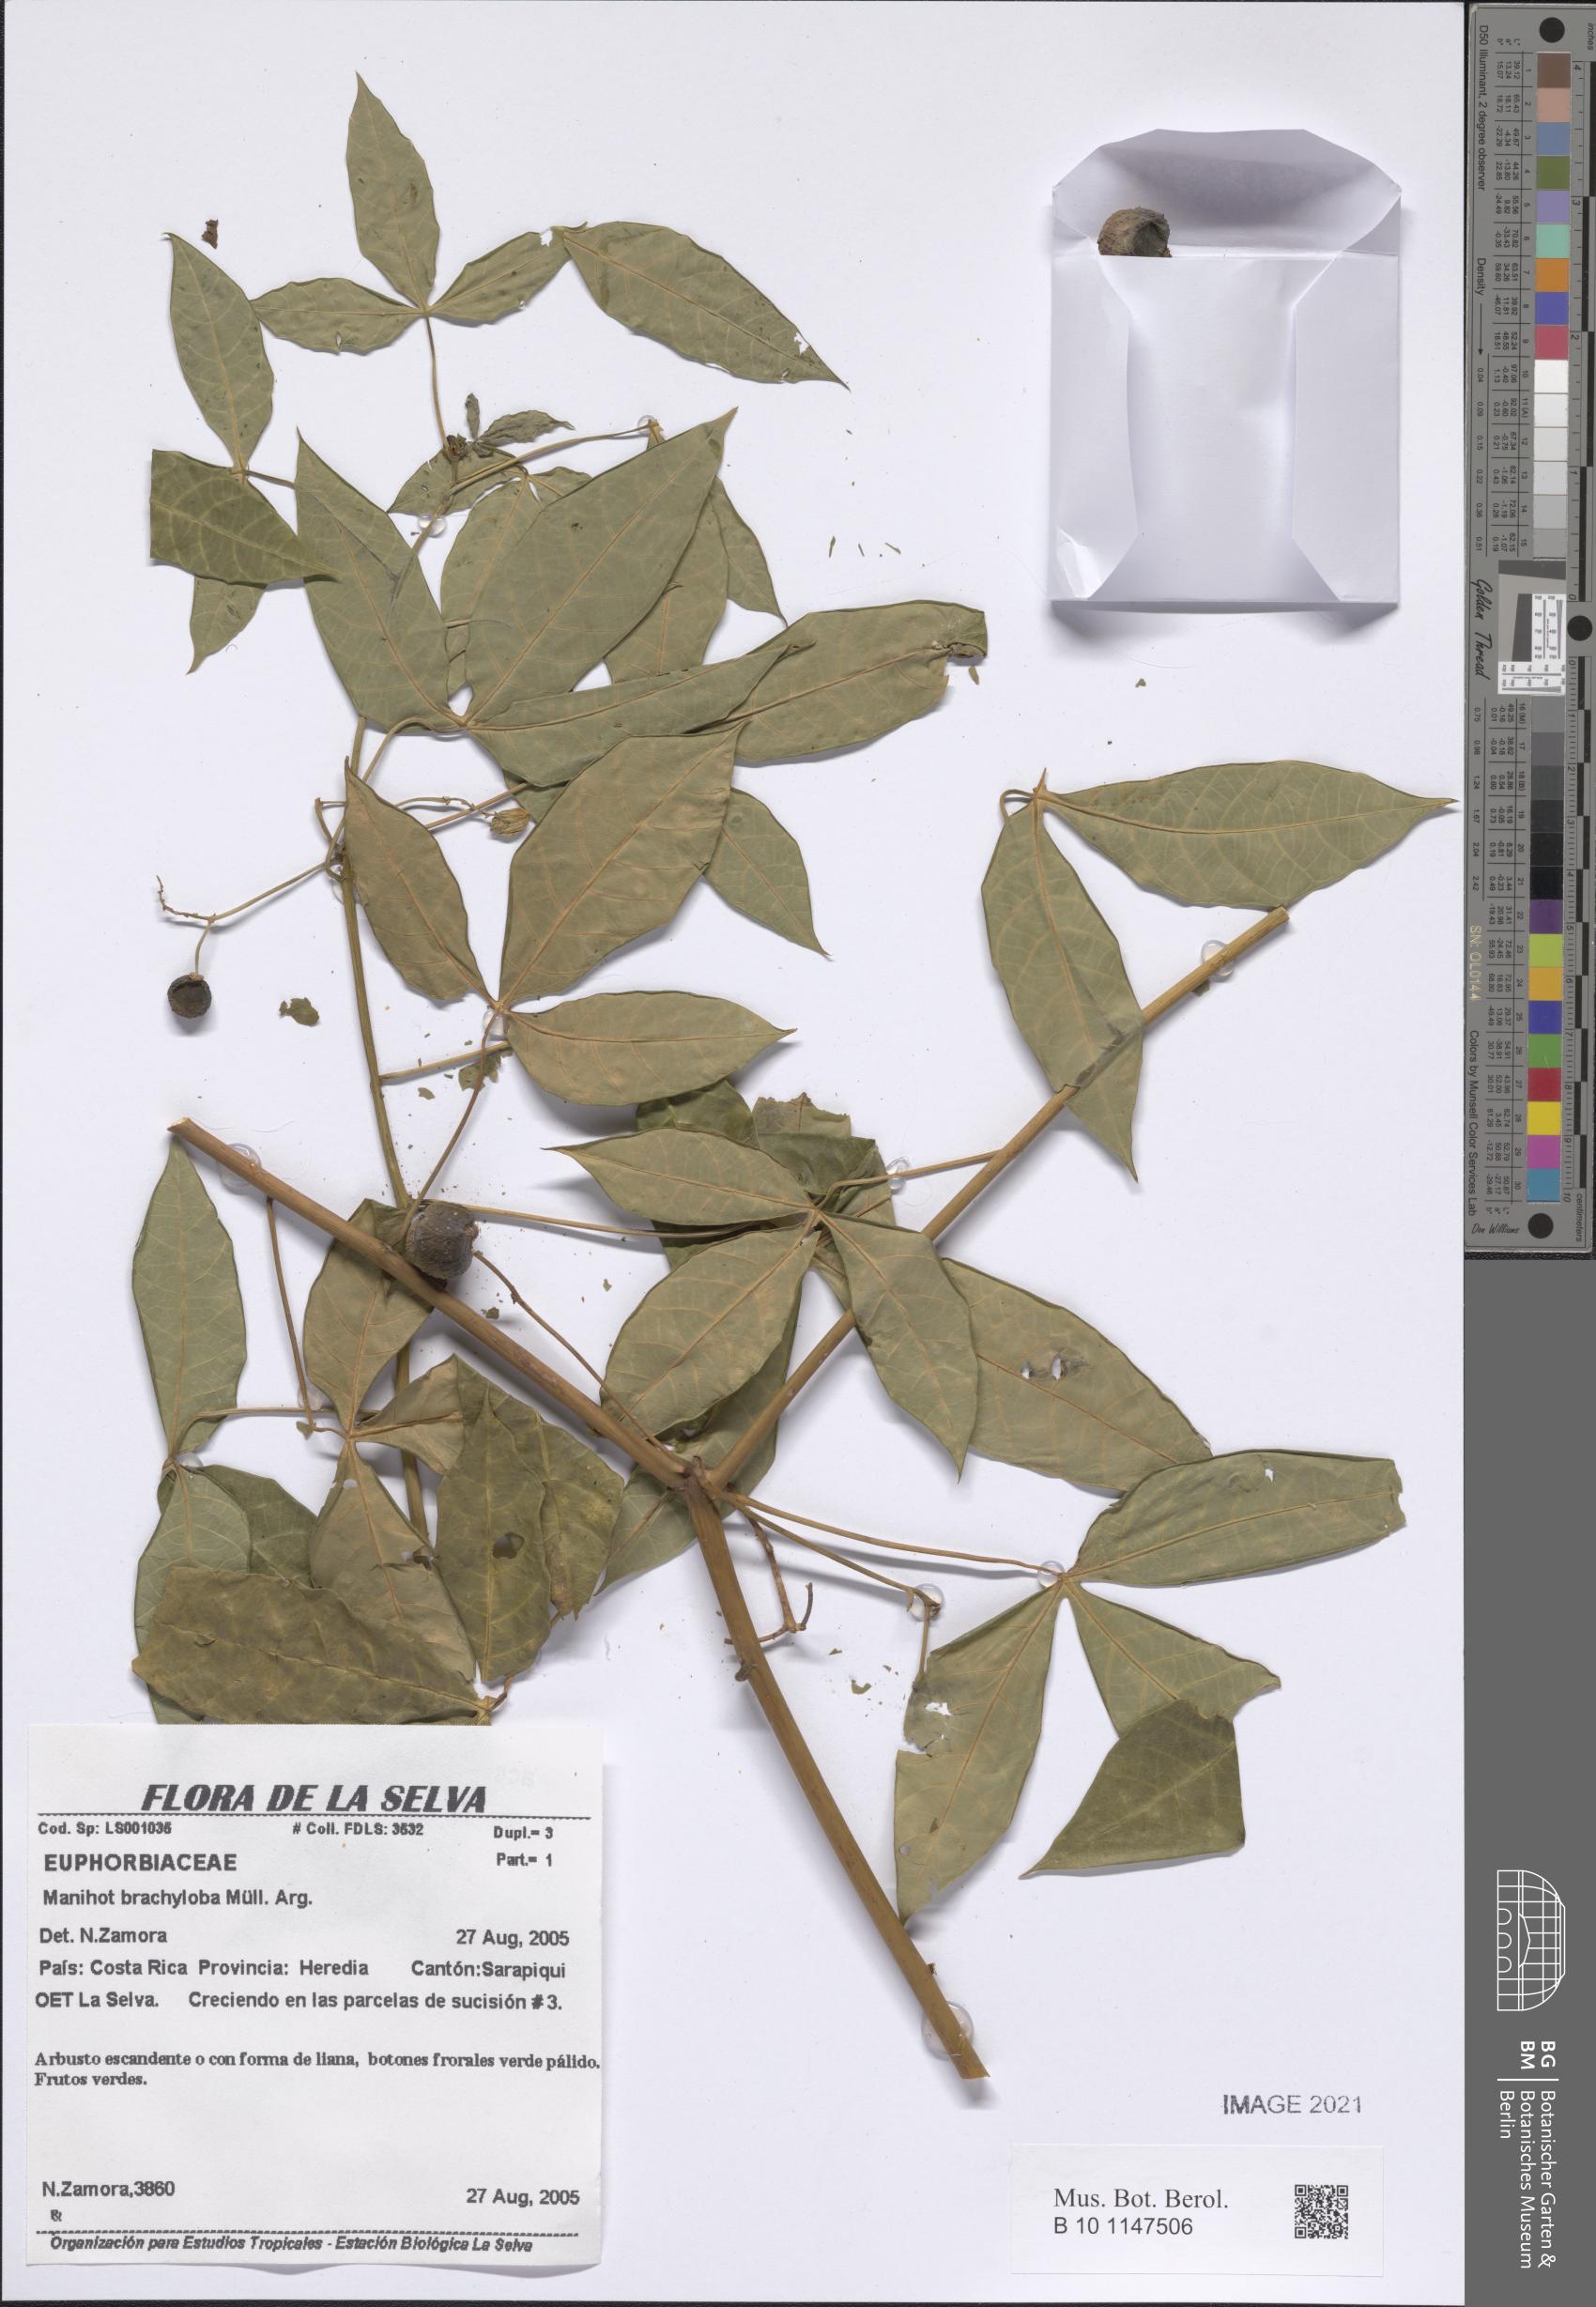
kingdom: Plantae
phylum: Tracheophyta
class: Magnoliopsida
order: Malpighiales
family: Euphorbiaceae
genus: Manihot
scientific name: Manihot brachyloba
